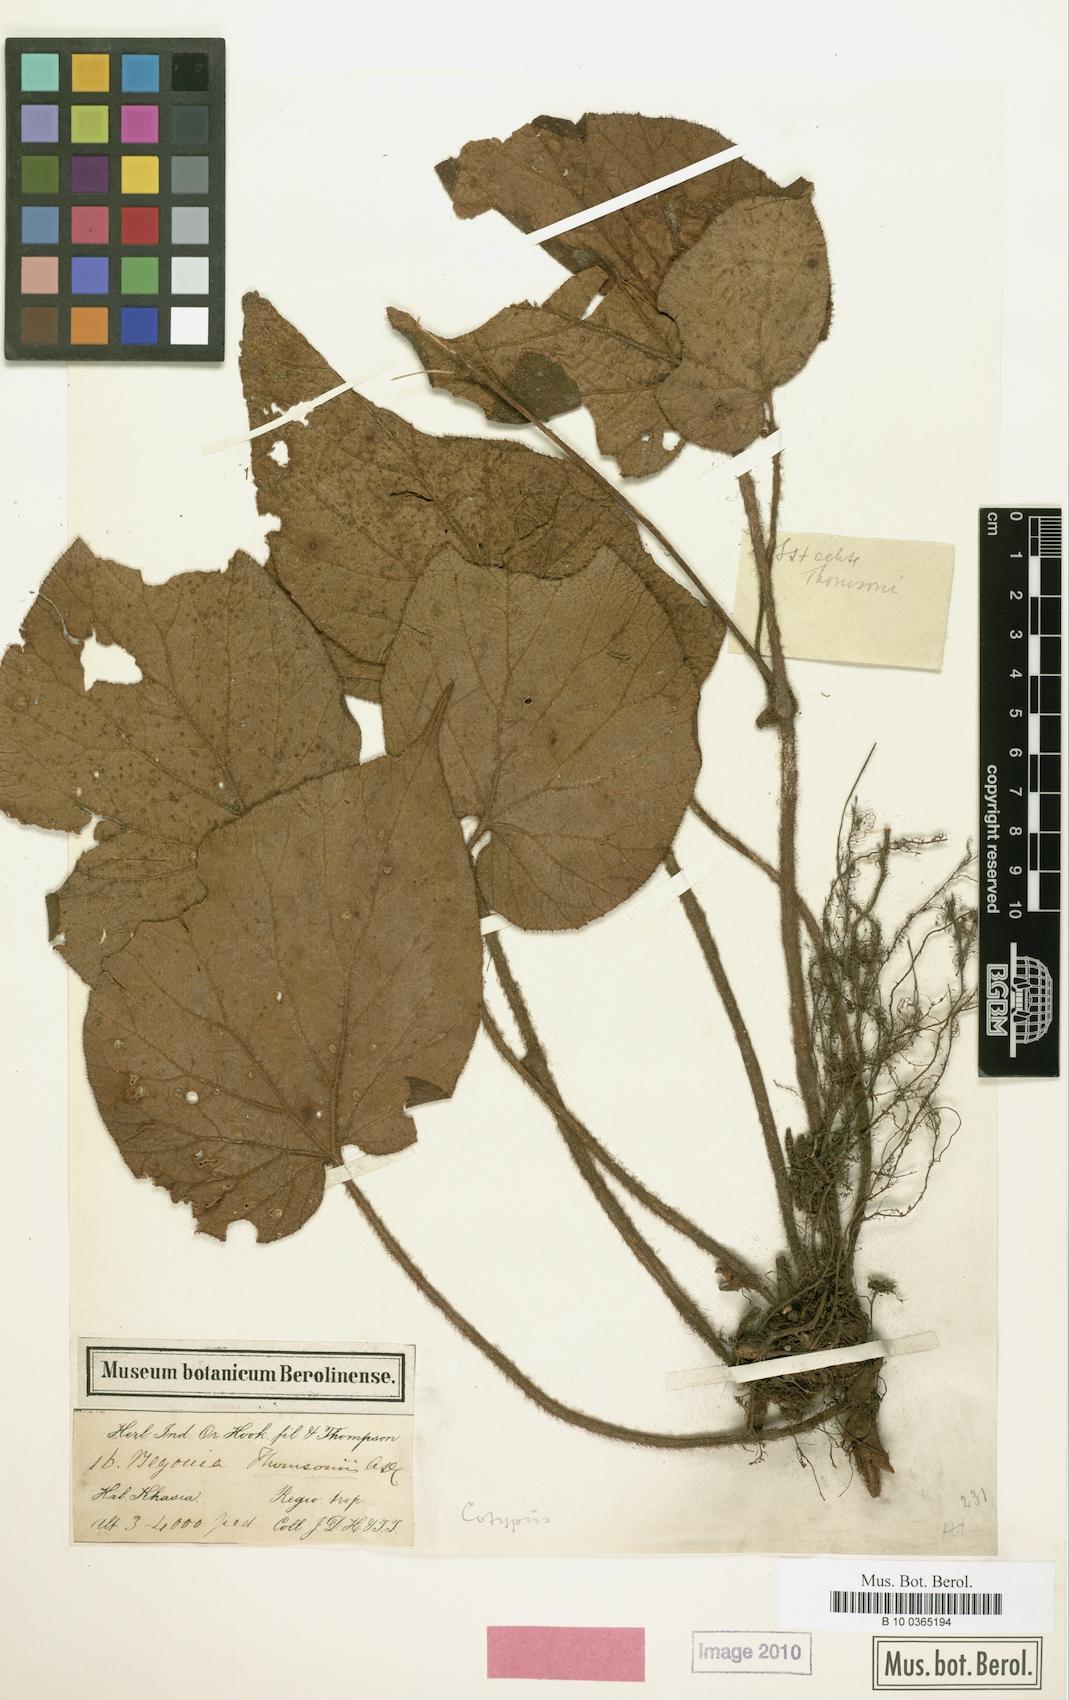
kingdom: Plantae
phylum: Tracheophyta
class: Magnoliopsida
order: Cucurbitales
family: Begoniaceae
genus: Begonia
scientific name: Begonia thomsonii
